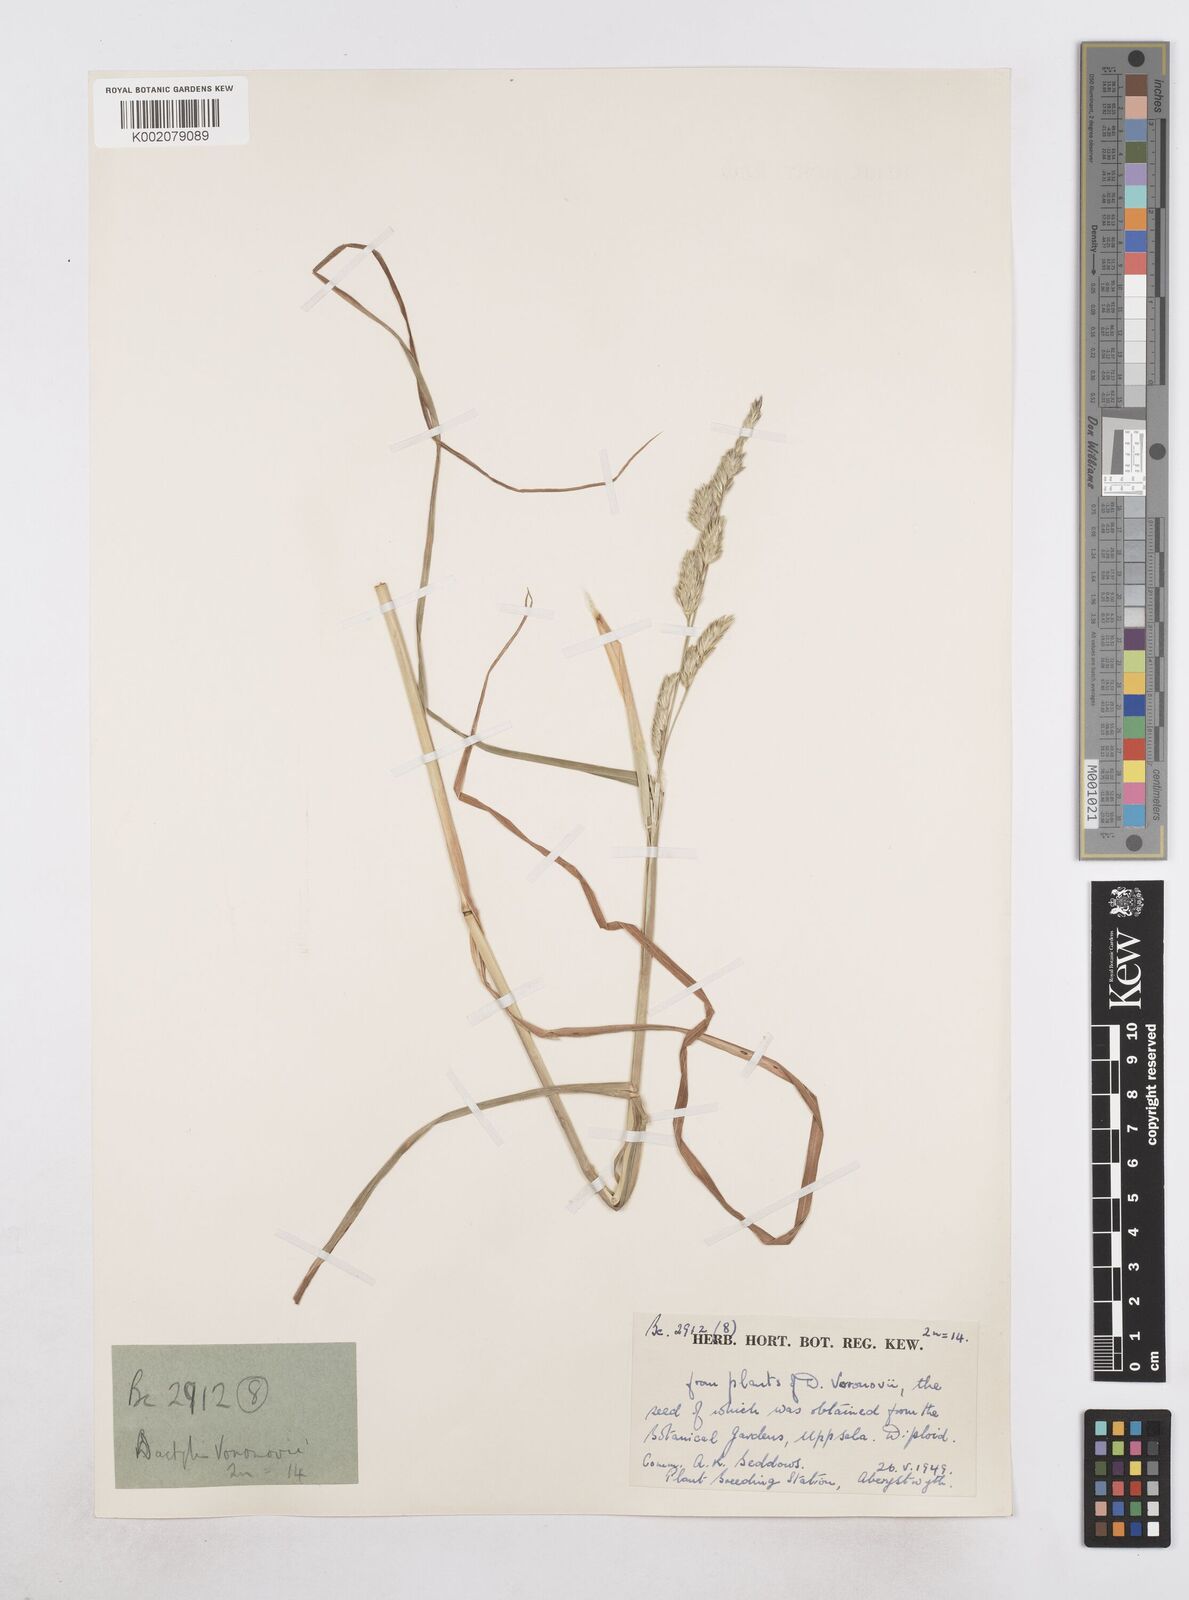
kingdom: Plantae
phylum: Tracheophyta
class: Liliopsida
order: Poales
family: Poaceae
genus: Dactylis
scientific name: Dactylis glomerata
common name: Orchardgrass
